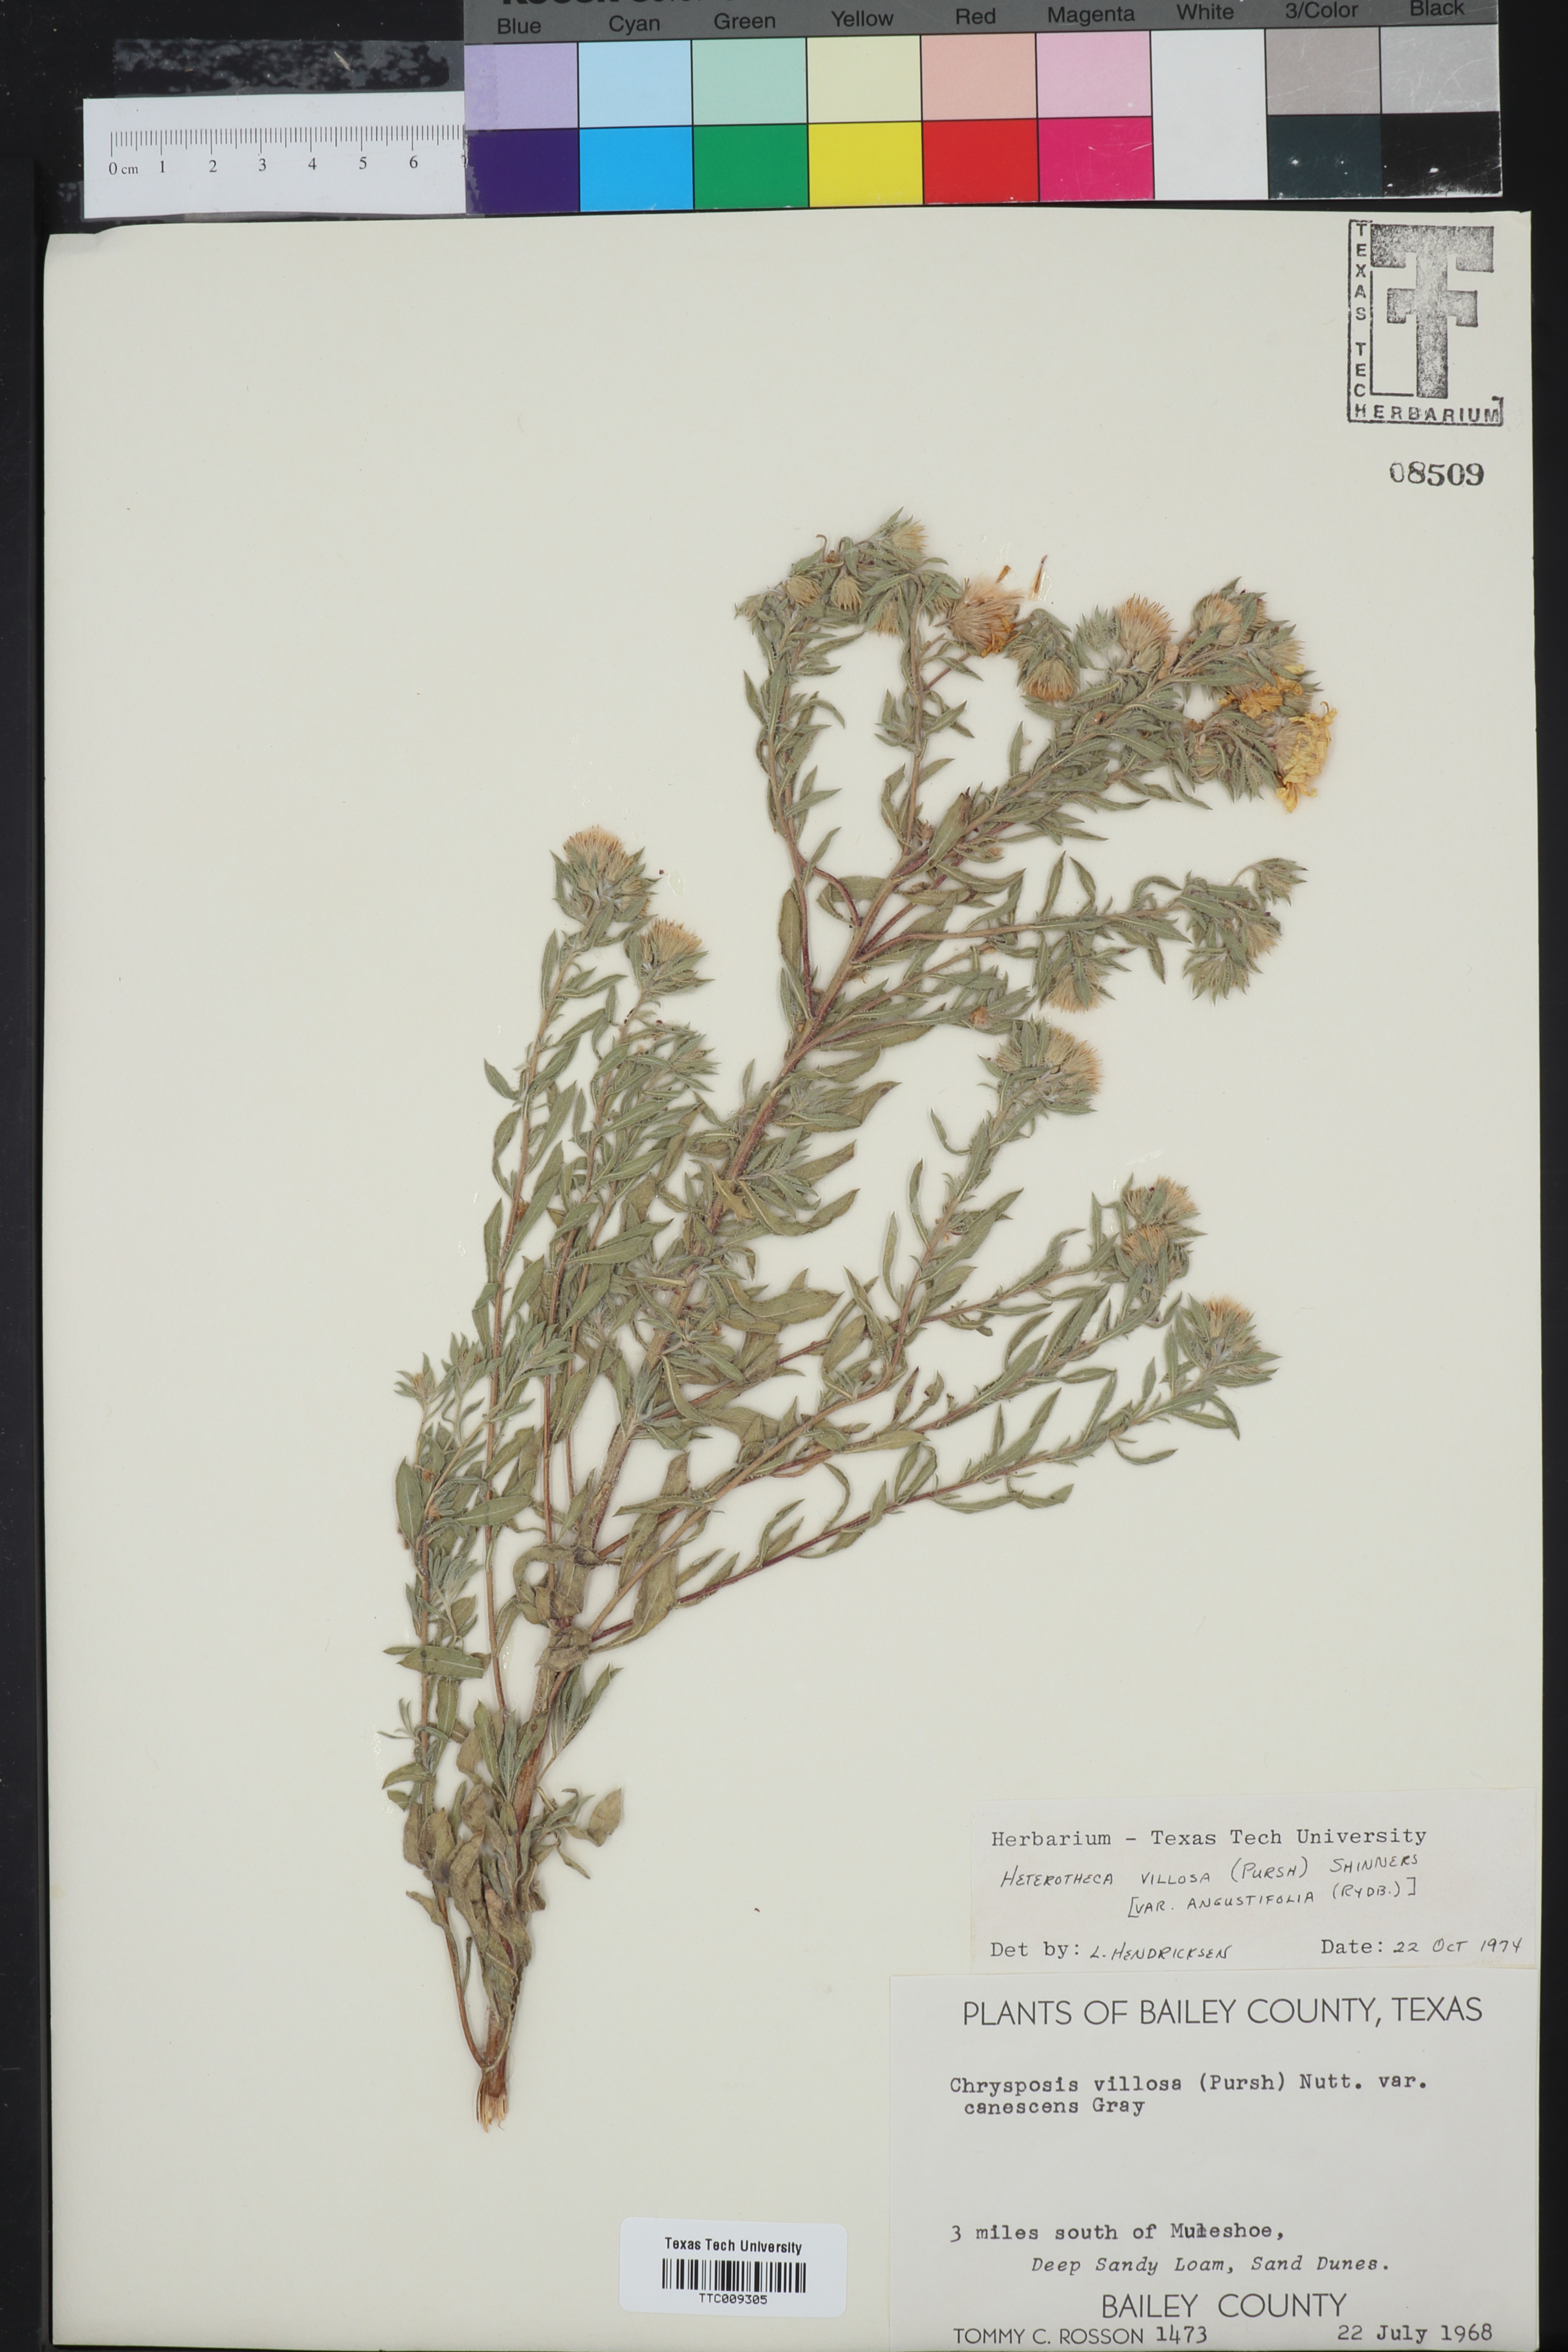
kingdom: Plantae
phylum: Tracheophyta
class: Magnoliopsida
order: Asterales
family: Asteraceae
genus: Heterotheca
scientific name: Heterotheca angustifolia
